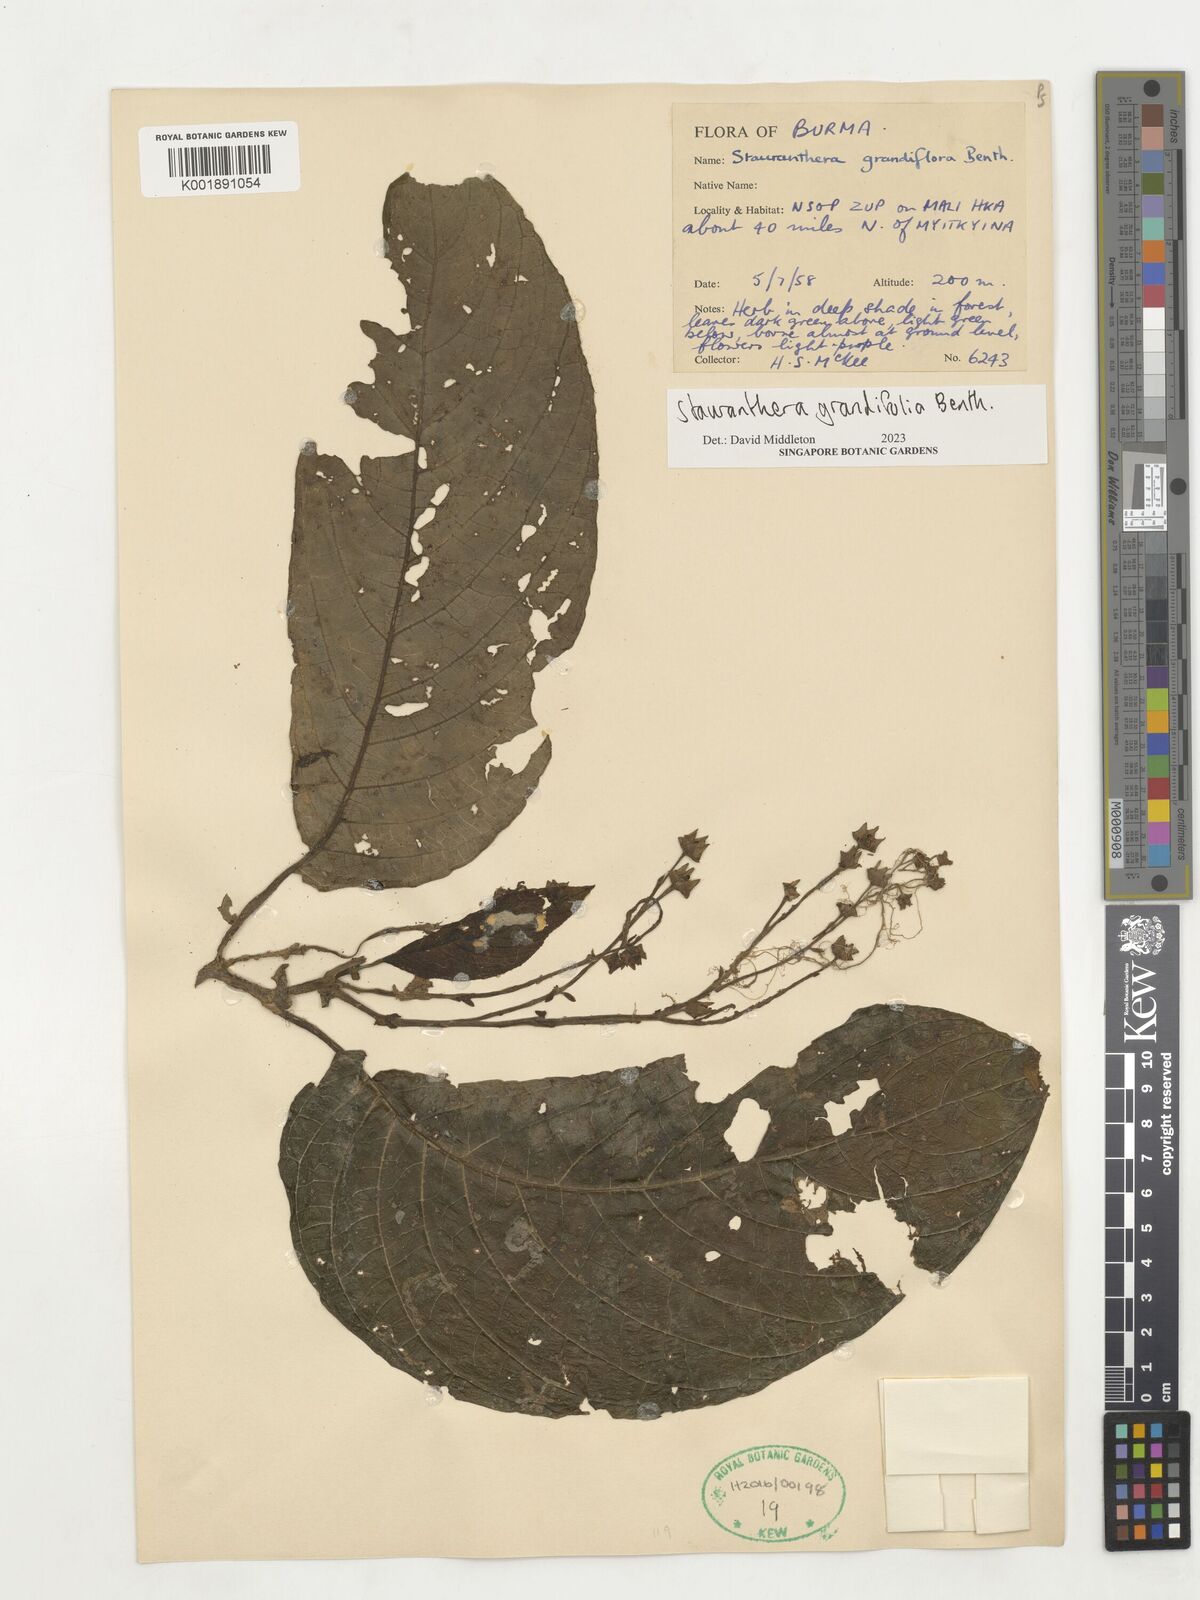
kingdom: Plantae
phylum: Tracheophyta
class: Magnoliopsida
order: Lamiales
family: Gesneriaceae
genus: Stauranthera
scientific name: Stauranthera grandifolia
